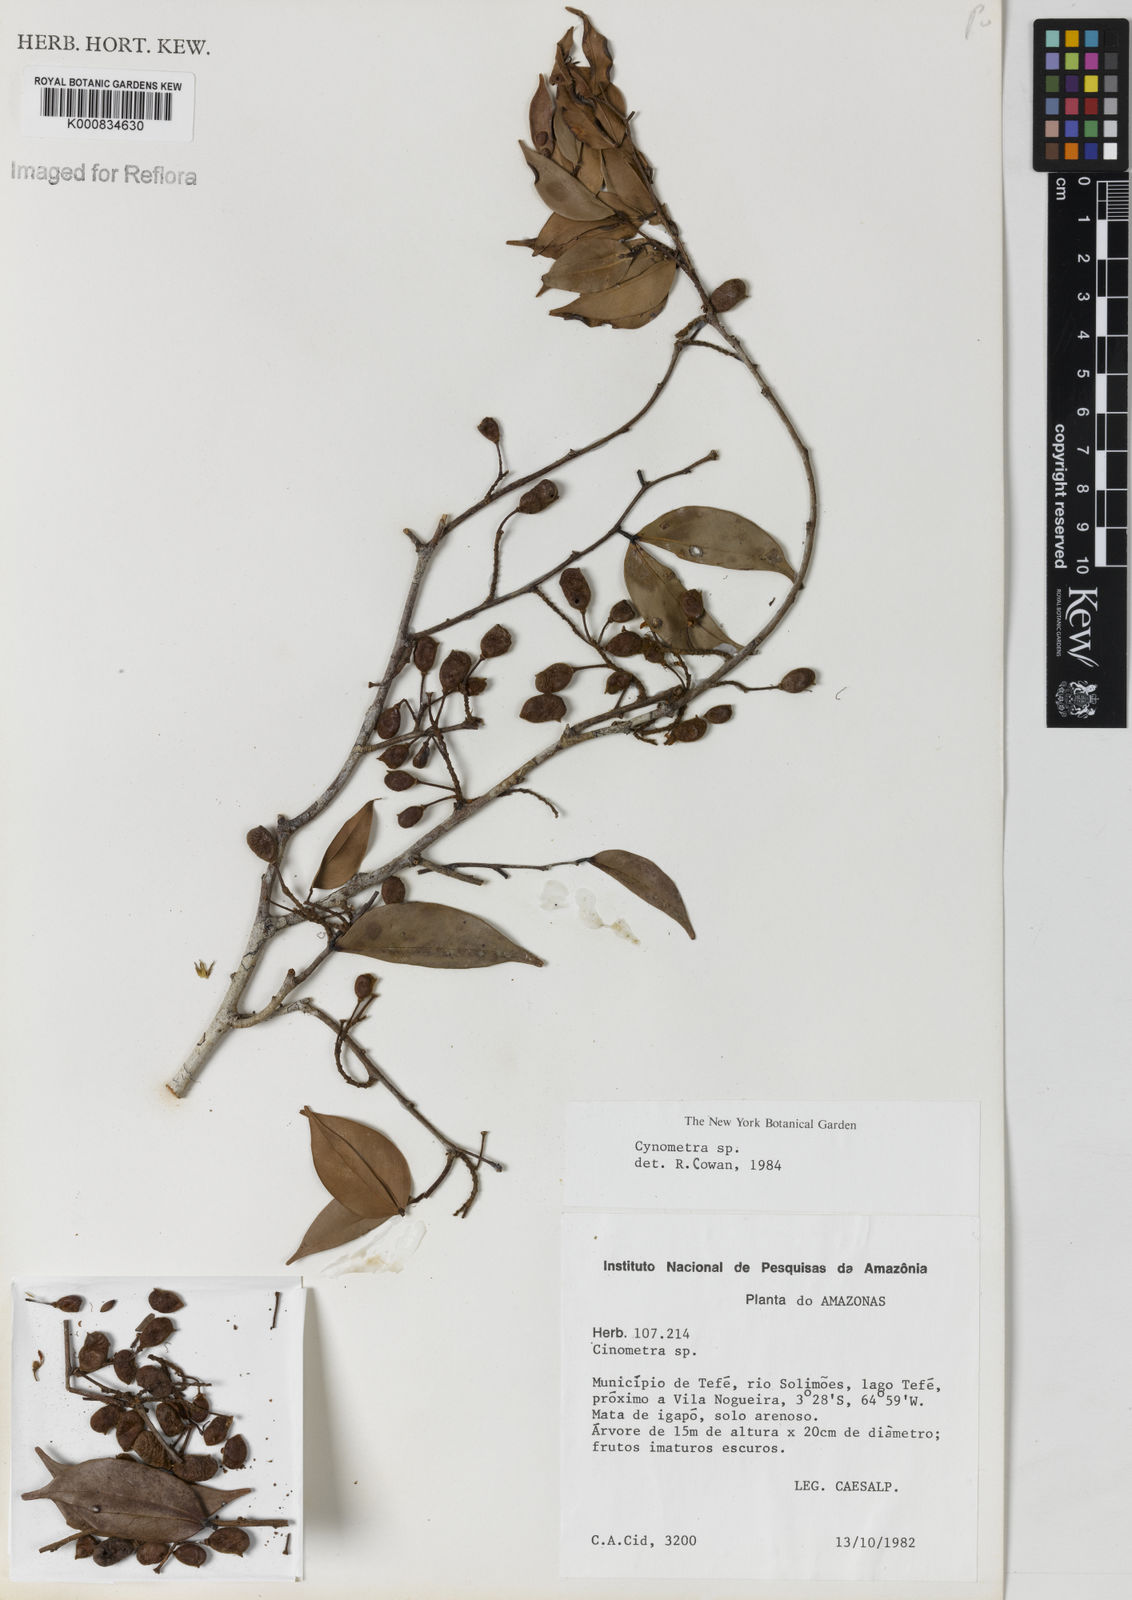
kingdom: Plantae
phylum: Tracheophyta
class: Magnoliopsida
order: Fabales
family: Fabaceae
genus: Cynometra
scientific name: Cynometra stenopetala
